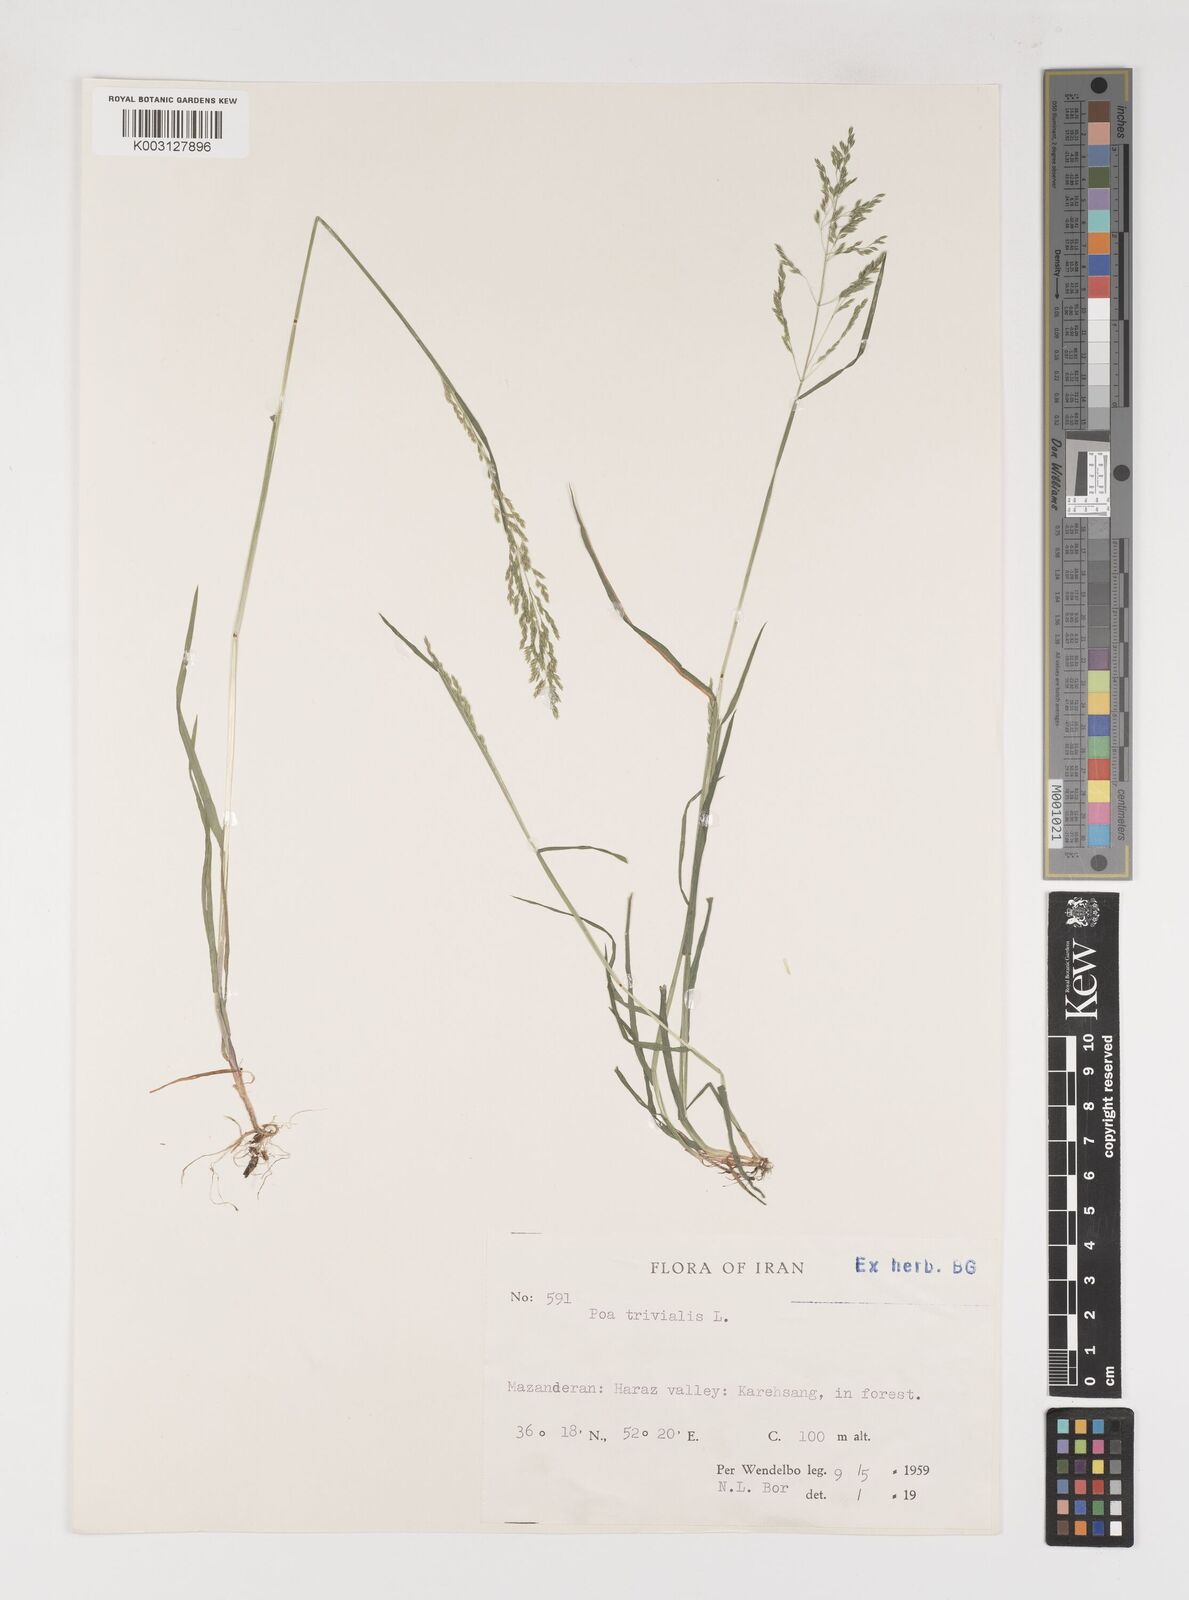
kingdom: Plantae
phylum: Tracheophyta
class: Liliopsida
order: Poales
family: Poaceae
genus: Poa
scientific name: Poa trivialis
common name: Rough bluegrass
